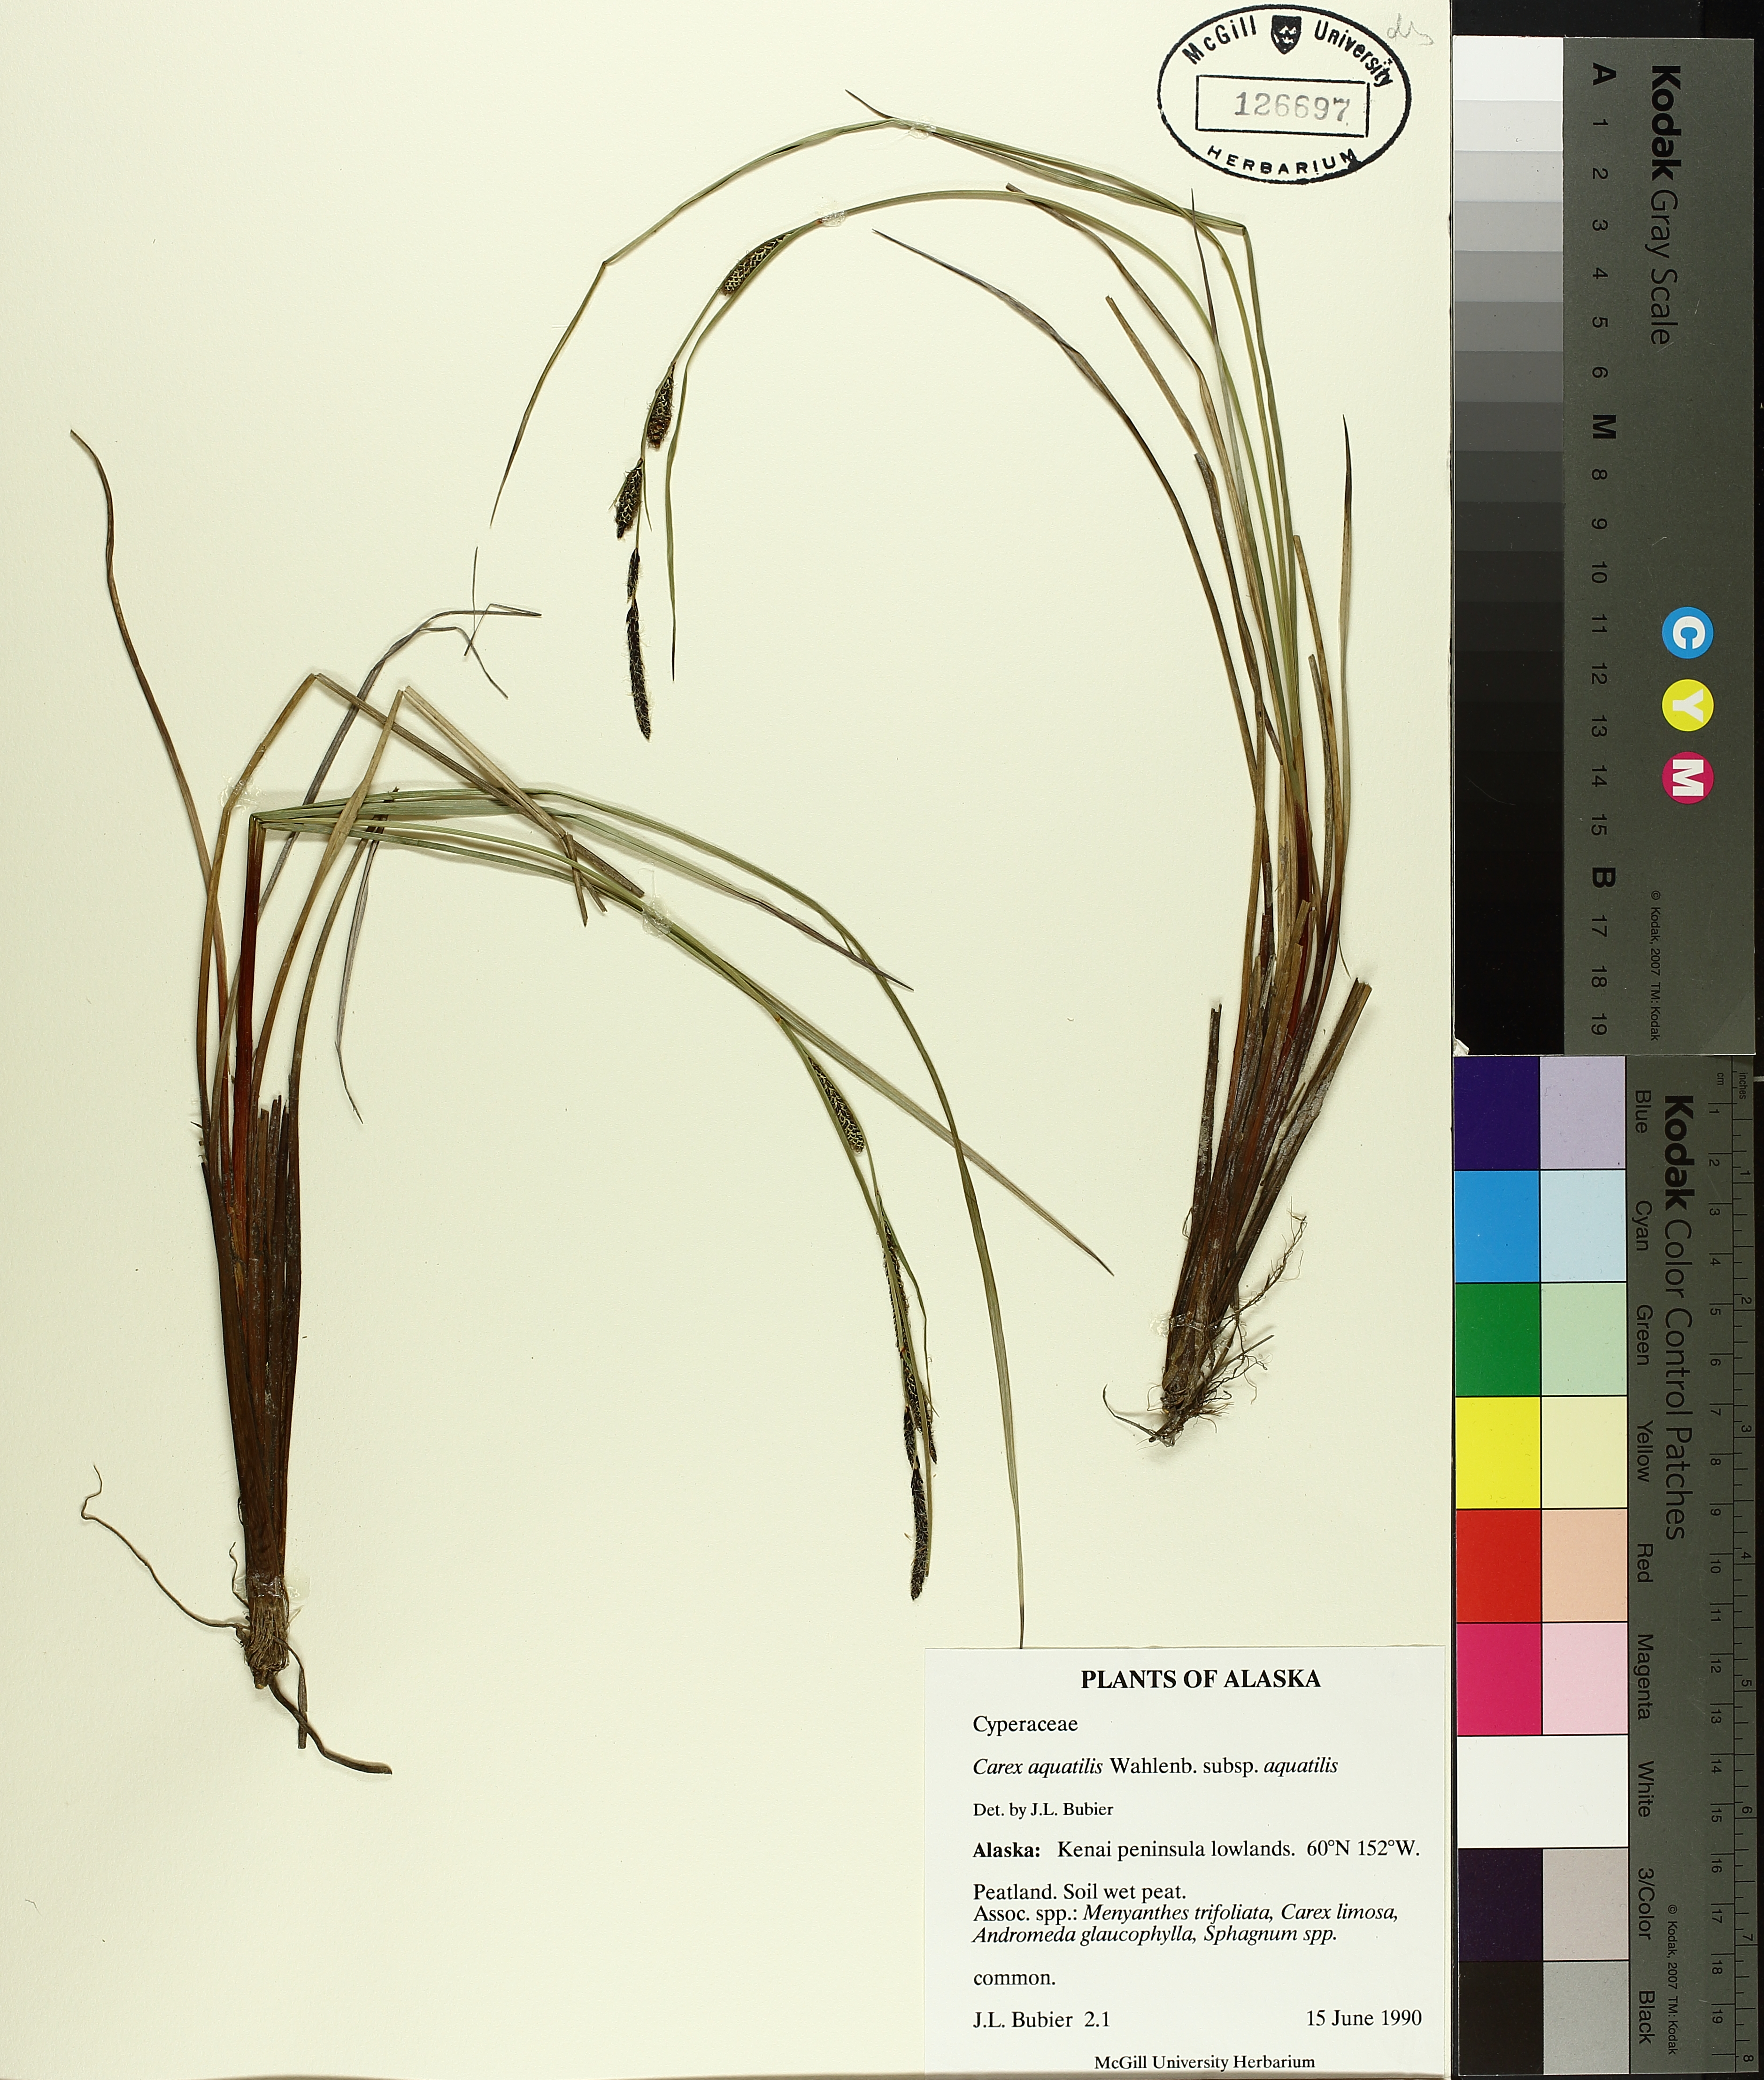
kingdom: Plantae
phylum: Tracheophyta
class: Liliopsida
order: Poales
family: Cyperaceae
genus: Carex
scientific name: Carex aquatilis
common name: Water sedge
